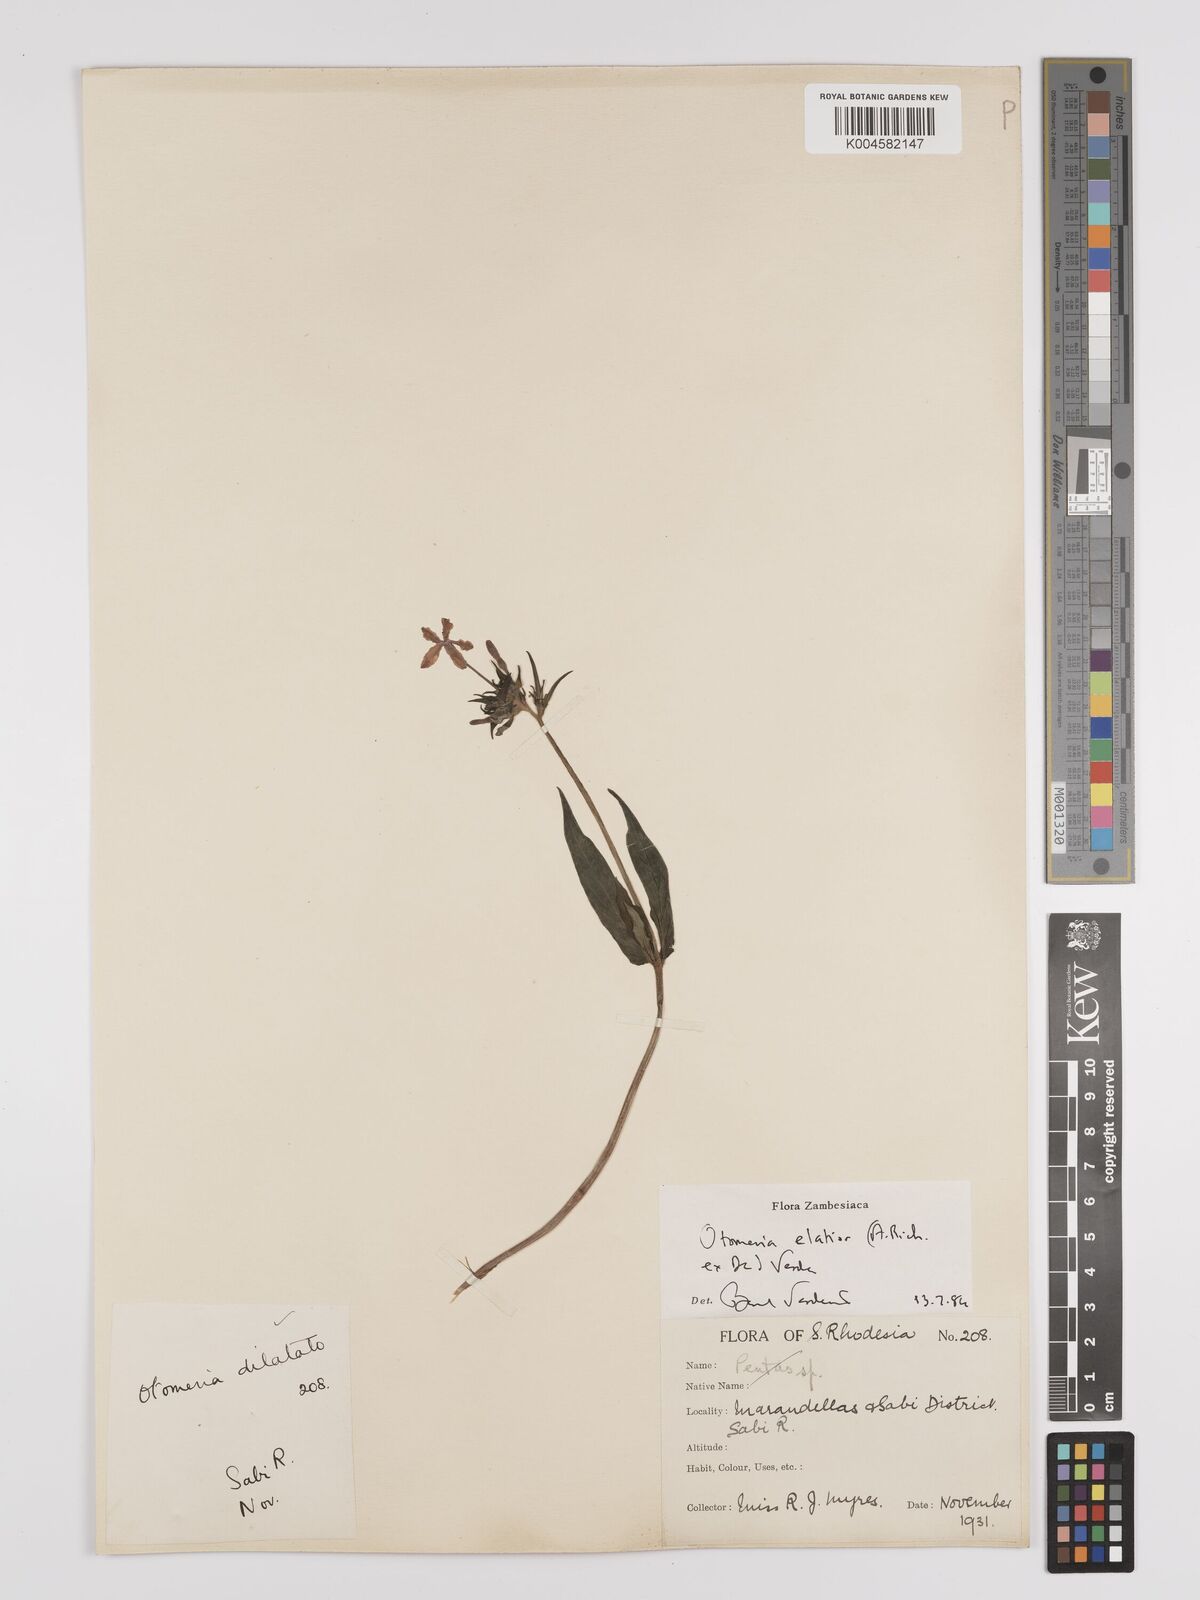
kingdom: Plantae
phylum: Tracheophyta
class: Magnoliopsida
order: Gentianales
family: Rubiaceae
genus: Otomeria
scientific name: Otomeria elatior
